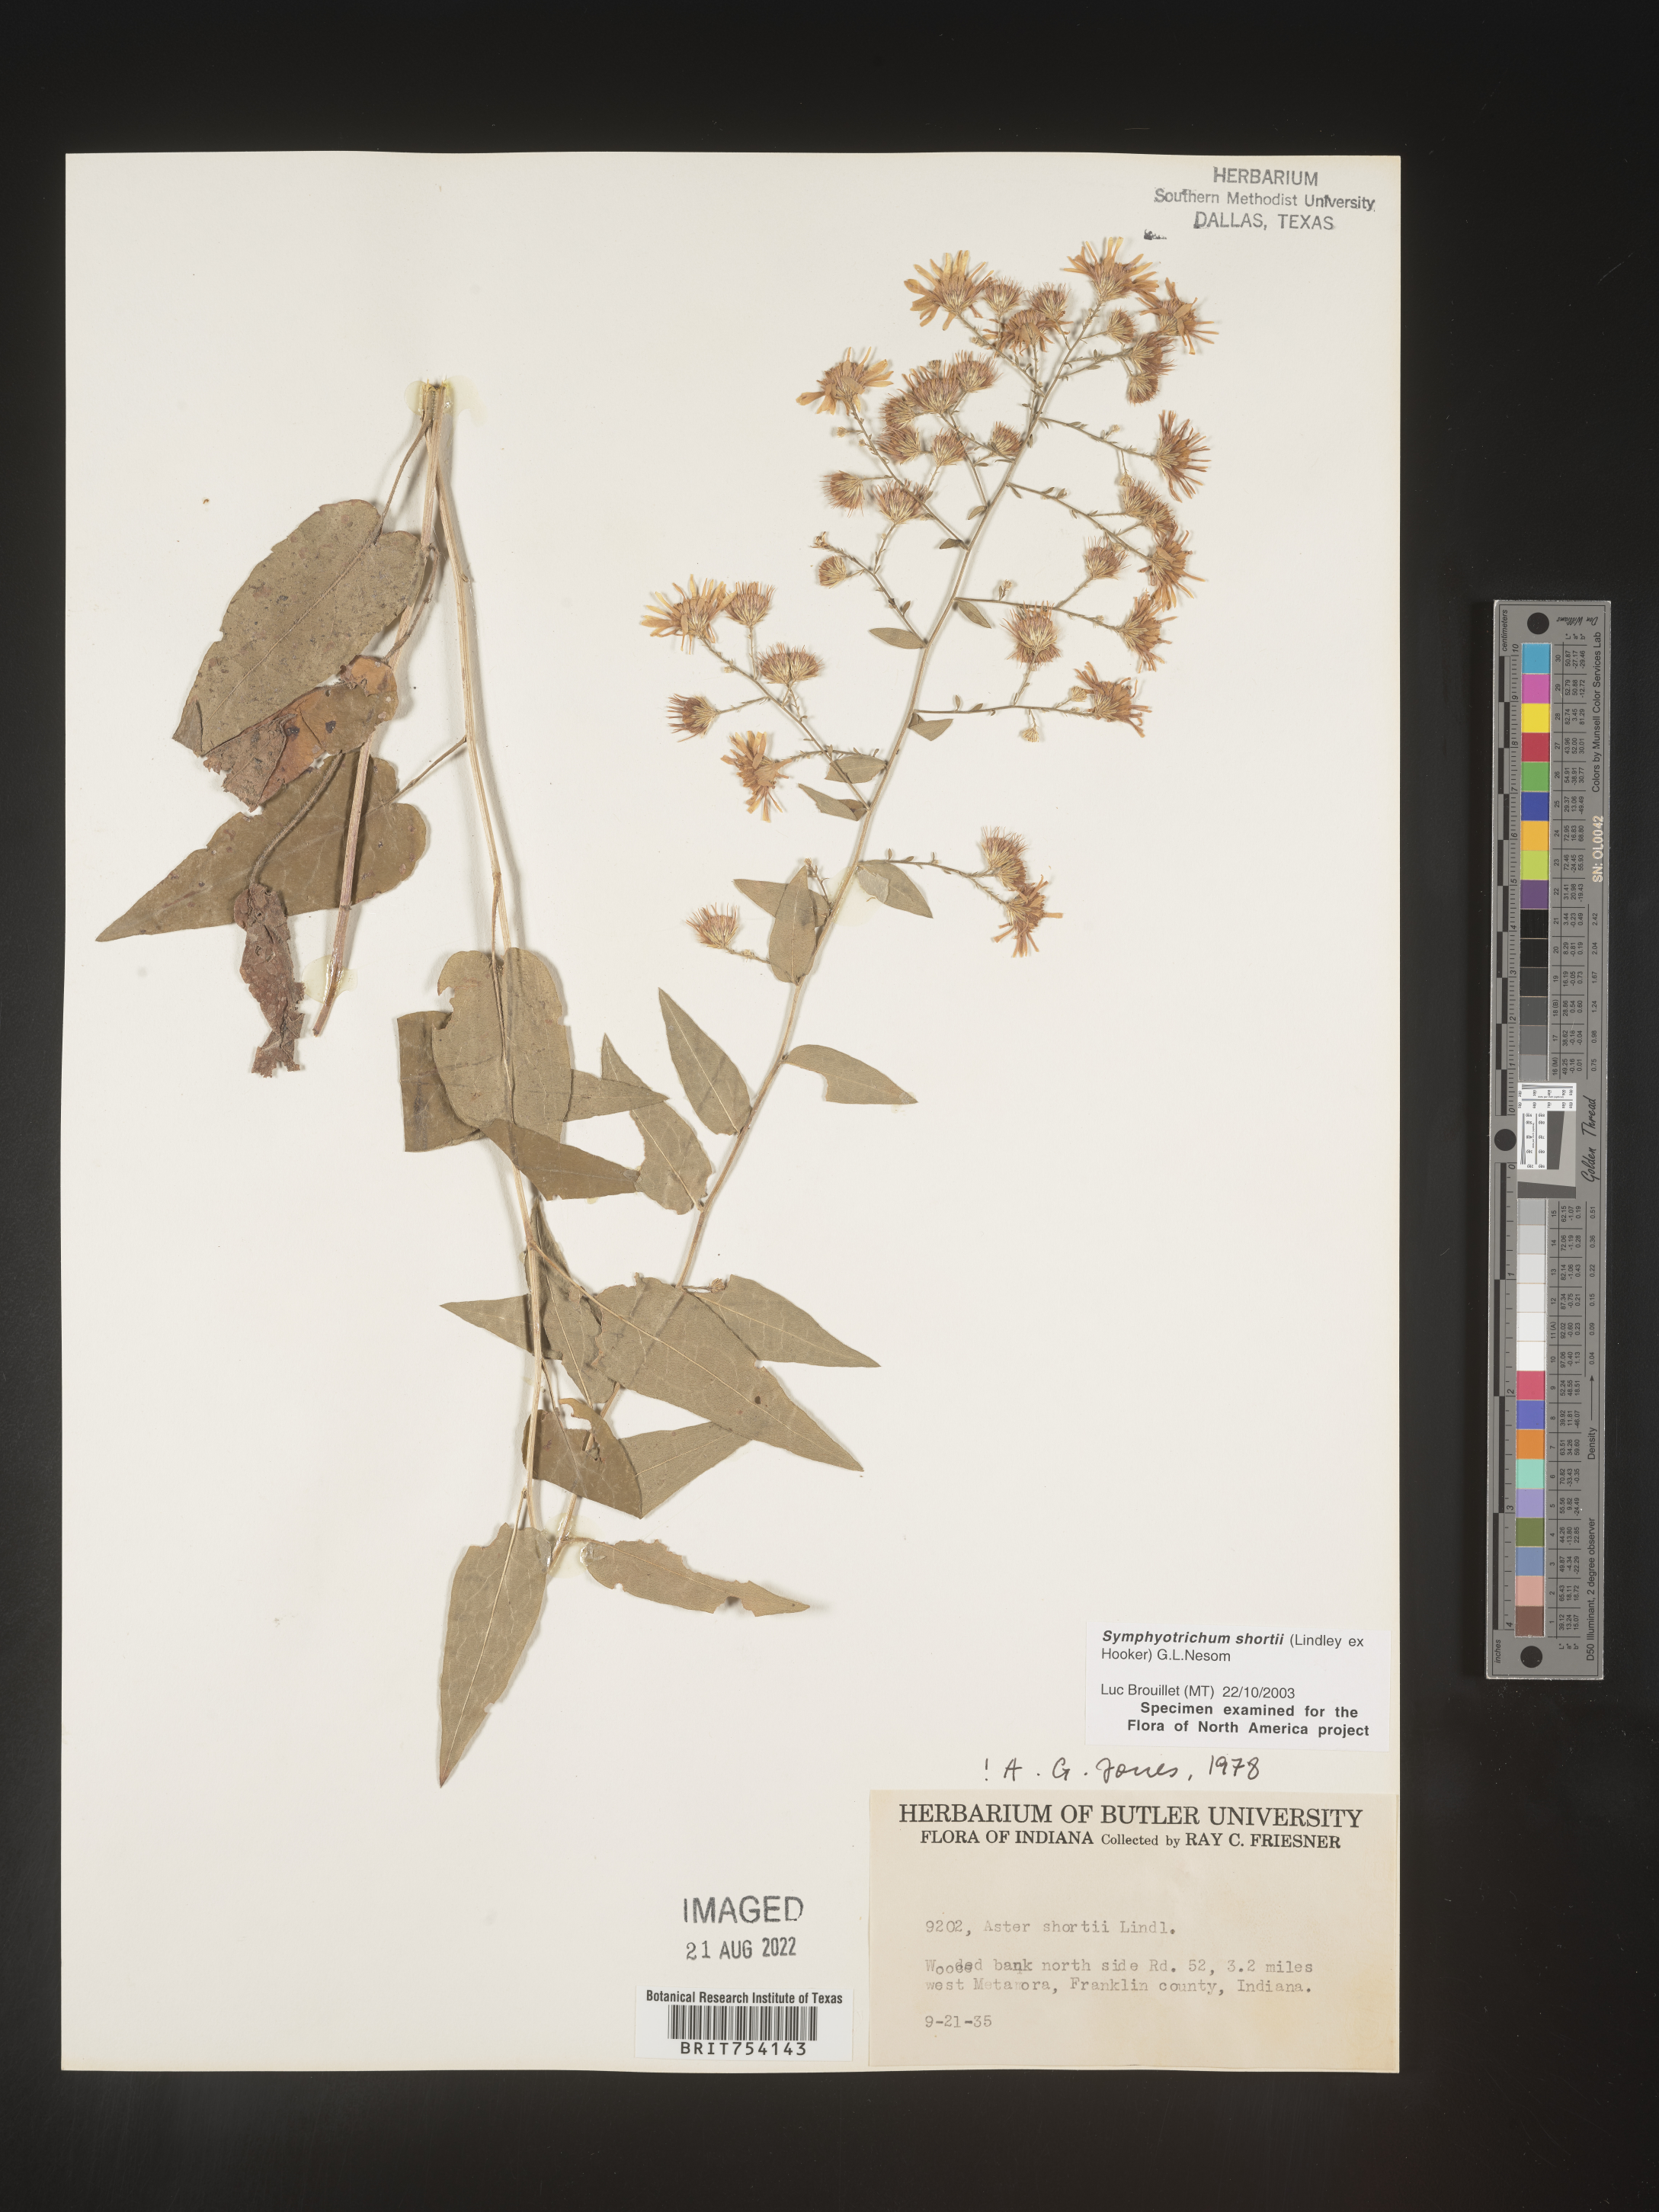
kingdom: Plantae
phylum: Tracheophyta
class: Magnoliopsida
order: Asterales
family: Asteraceae
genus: Symphyotrichum
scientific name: Symphyotrichum shortii
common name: Short's aster
